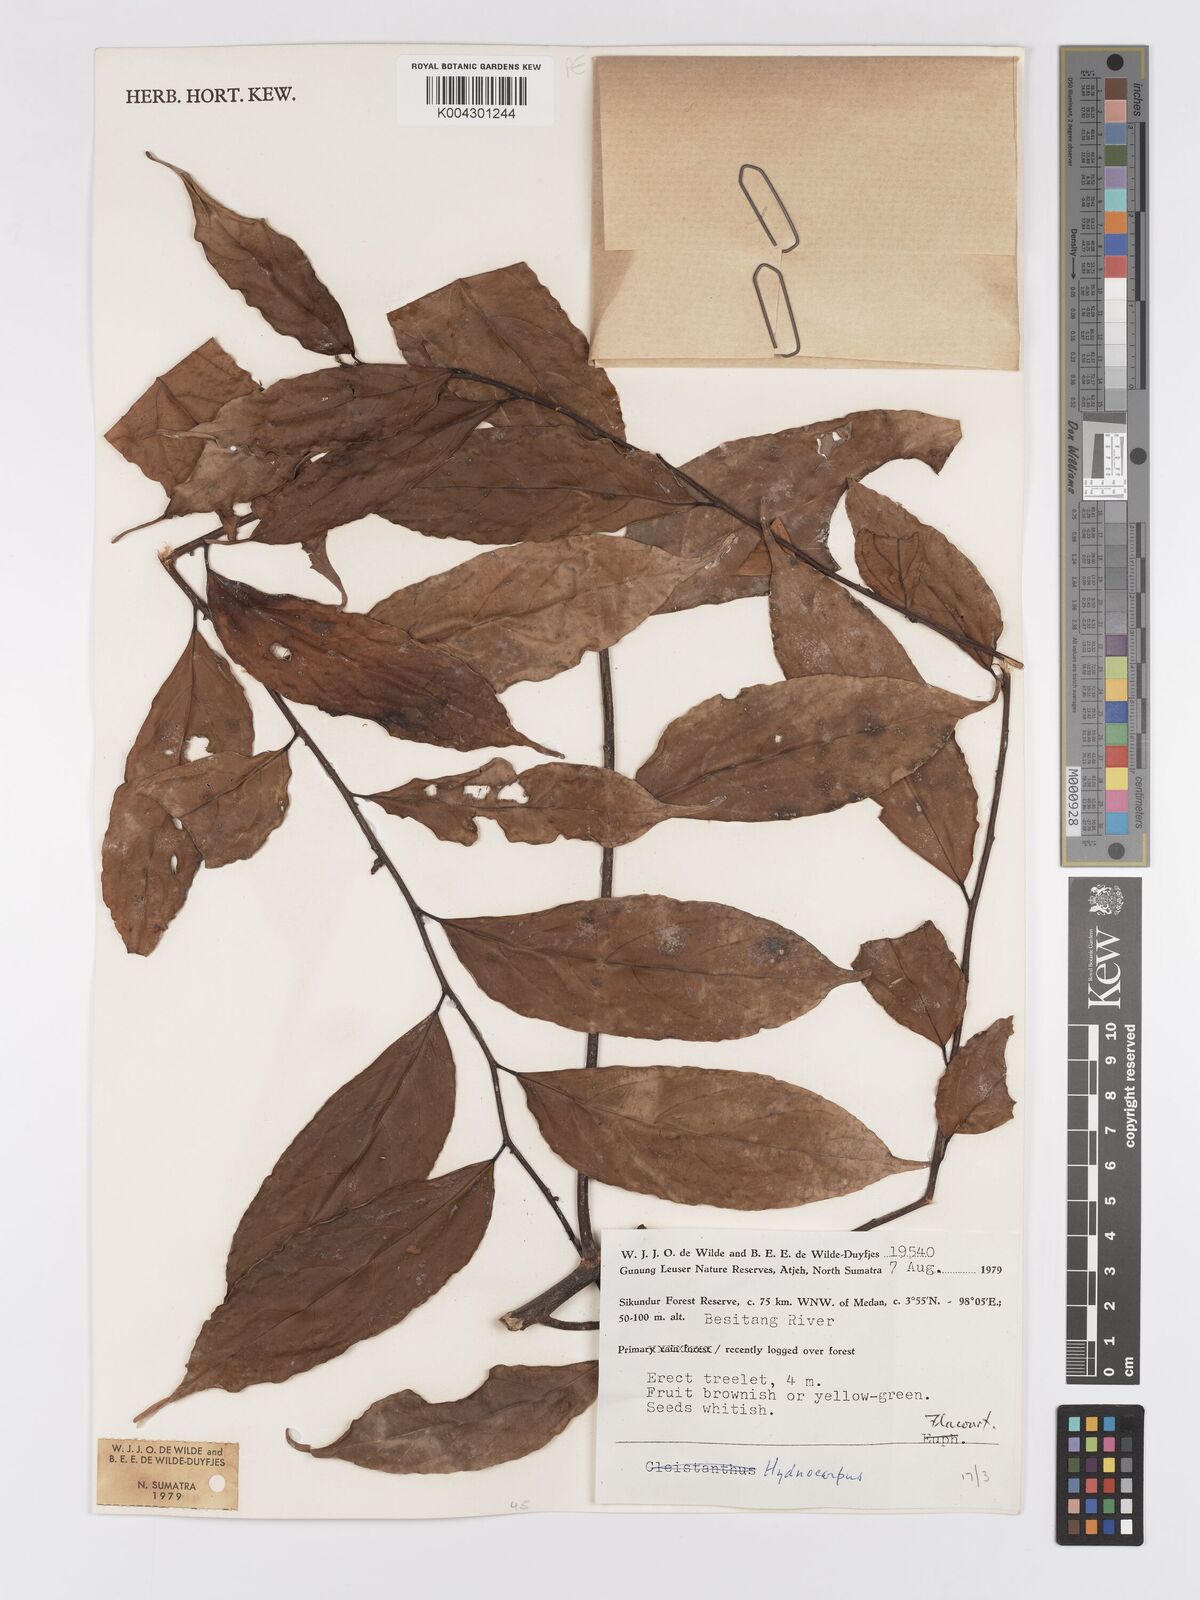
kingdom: Plantae
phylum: Tracheophyta
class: Magnoliopsida
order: Malpighiales
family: Achariaceae
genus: Hydnocarpus
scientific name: Hydnocarpus
